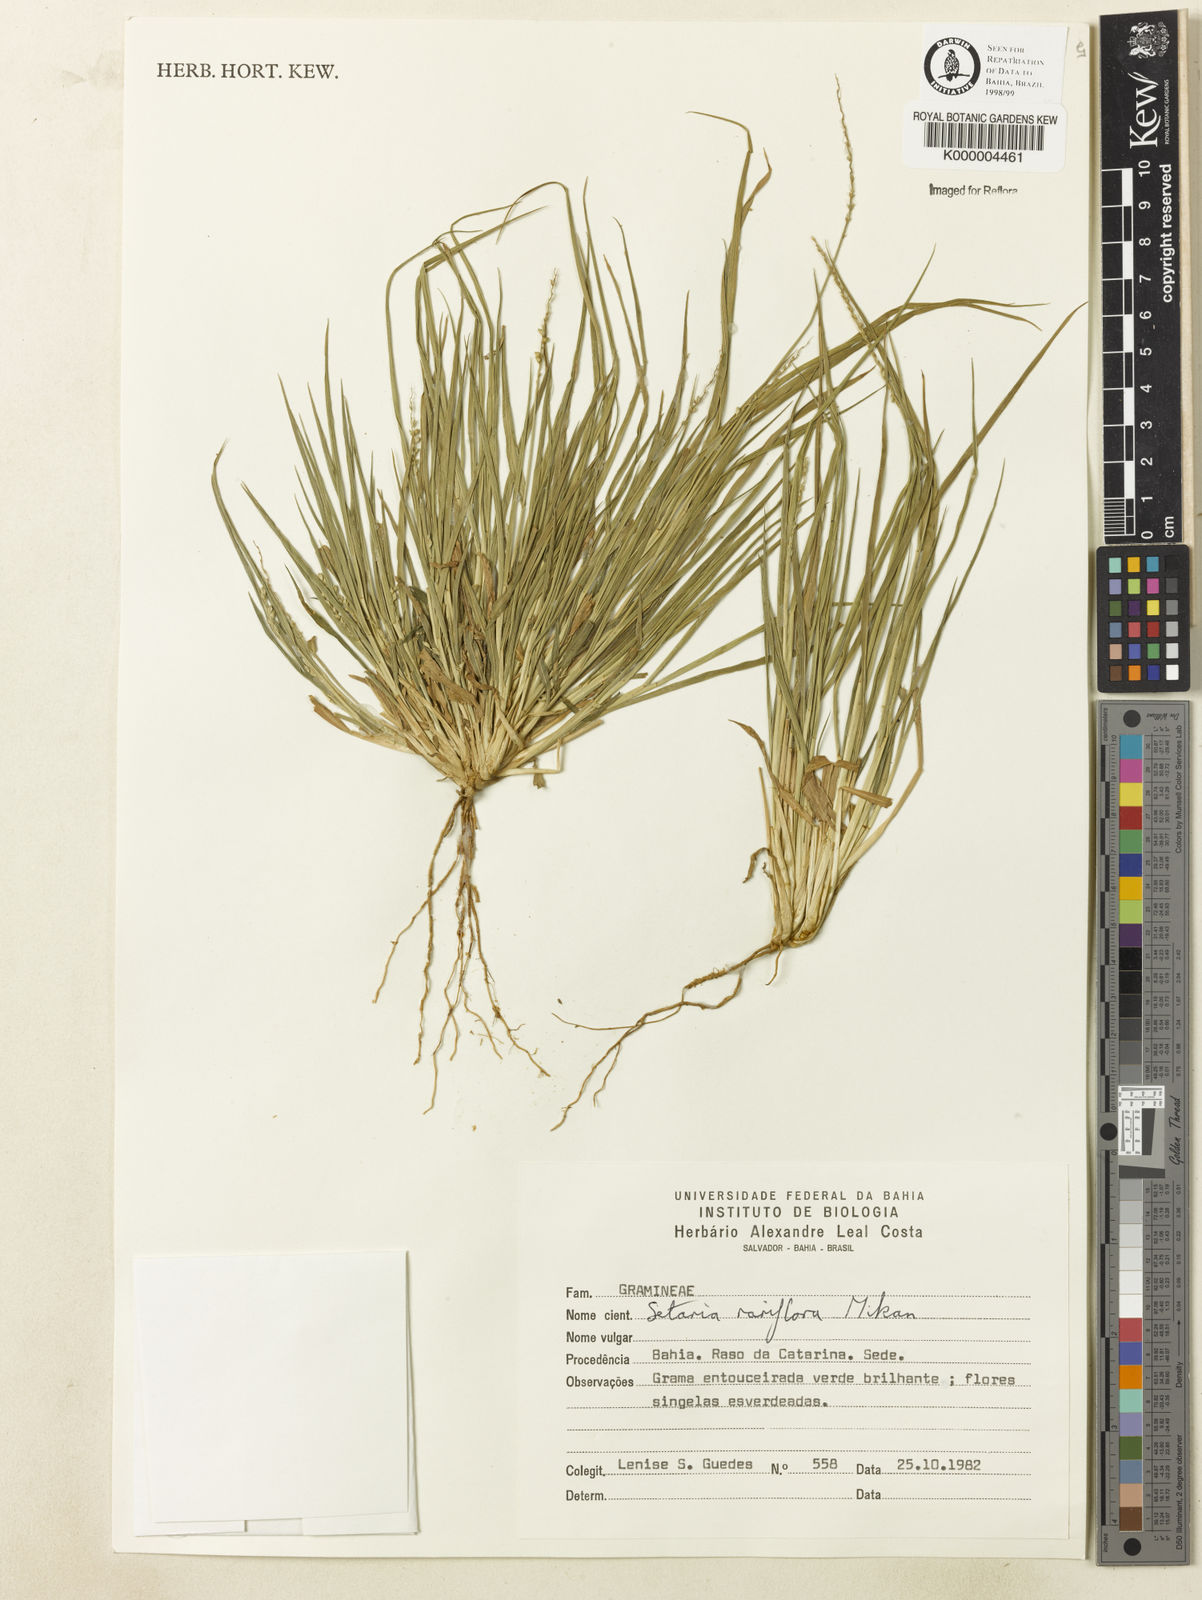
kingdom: Plantae
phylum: Tracheophyta
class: Liliopsida
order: Poales
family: Poaceae
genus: Setaria
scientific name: Setaria setosa
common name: West indies bristle grass
